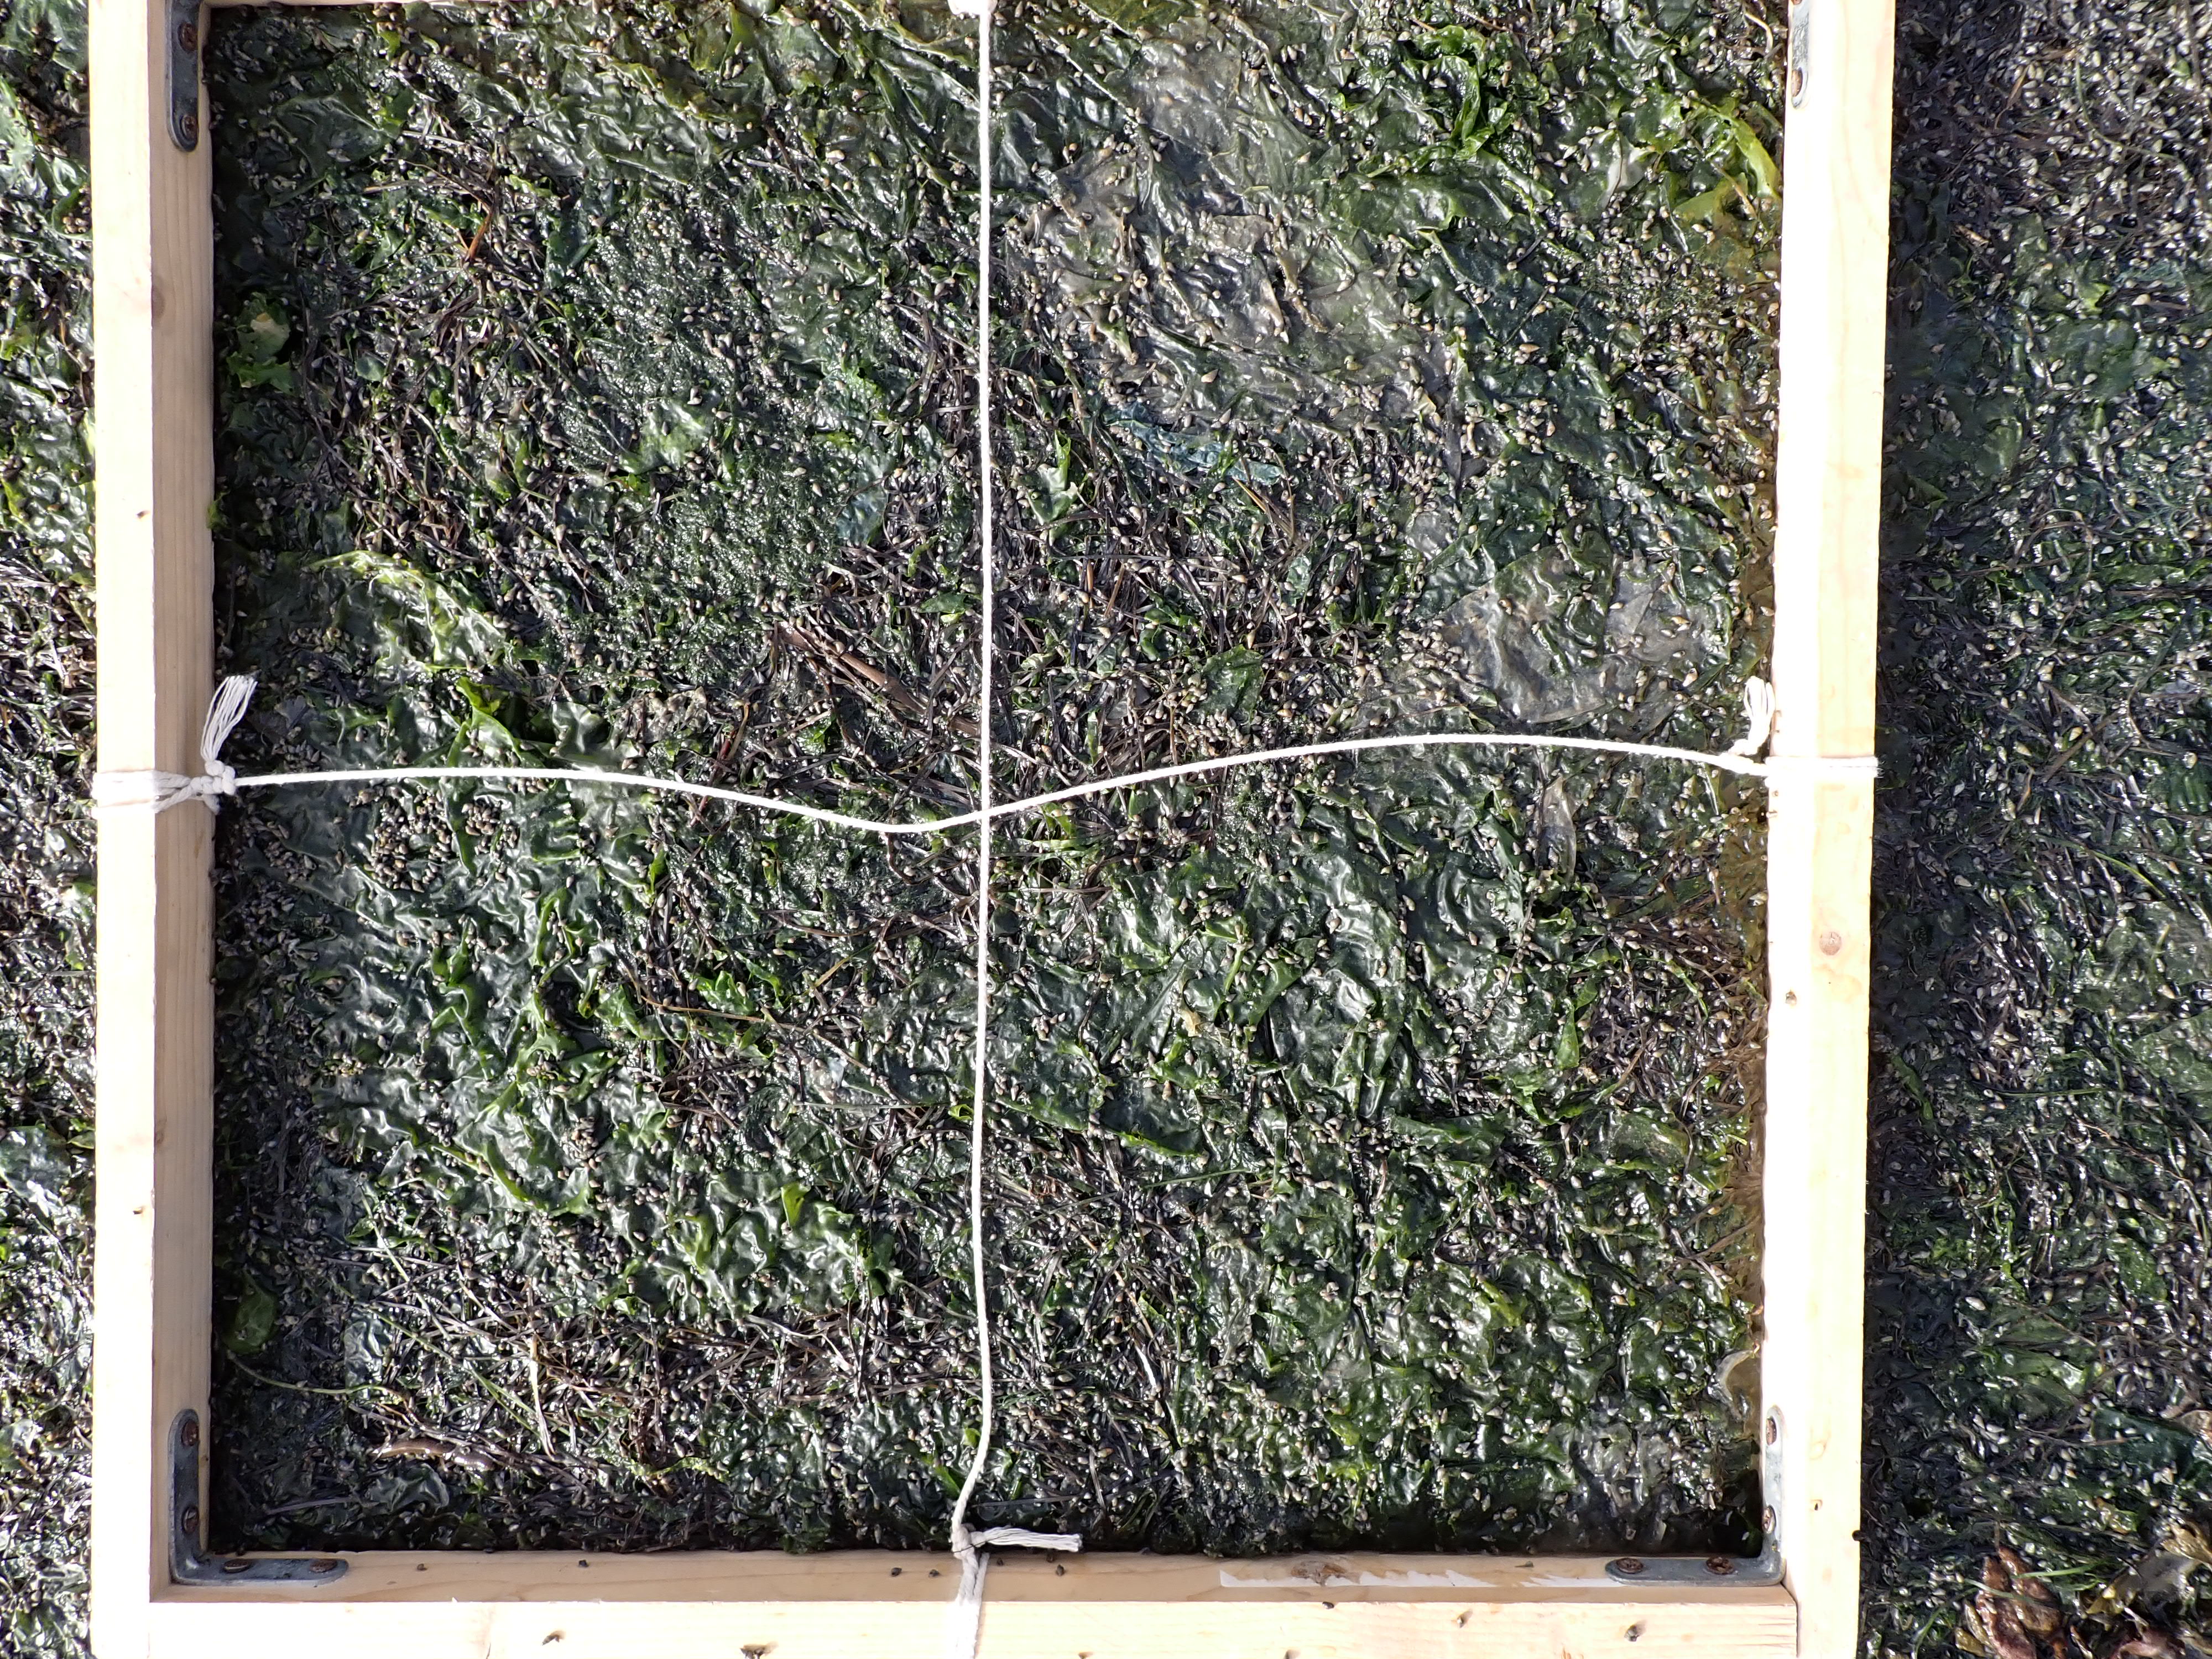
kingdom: Plantae
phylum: Chlorophyta
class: Ulvophyceae
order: Ulvales
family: Ulvaceae
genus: Ulva
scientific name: Ulva
